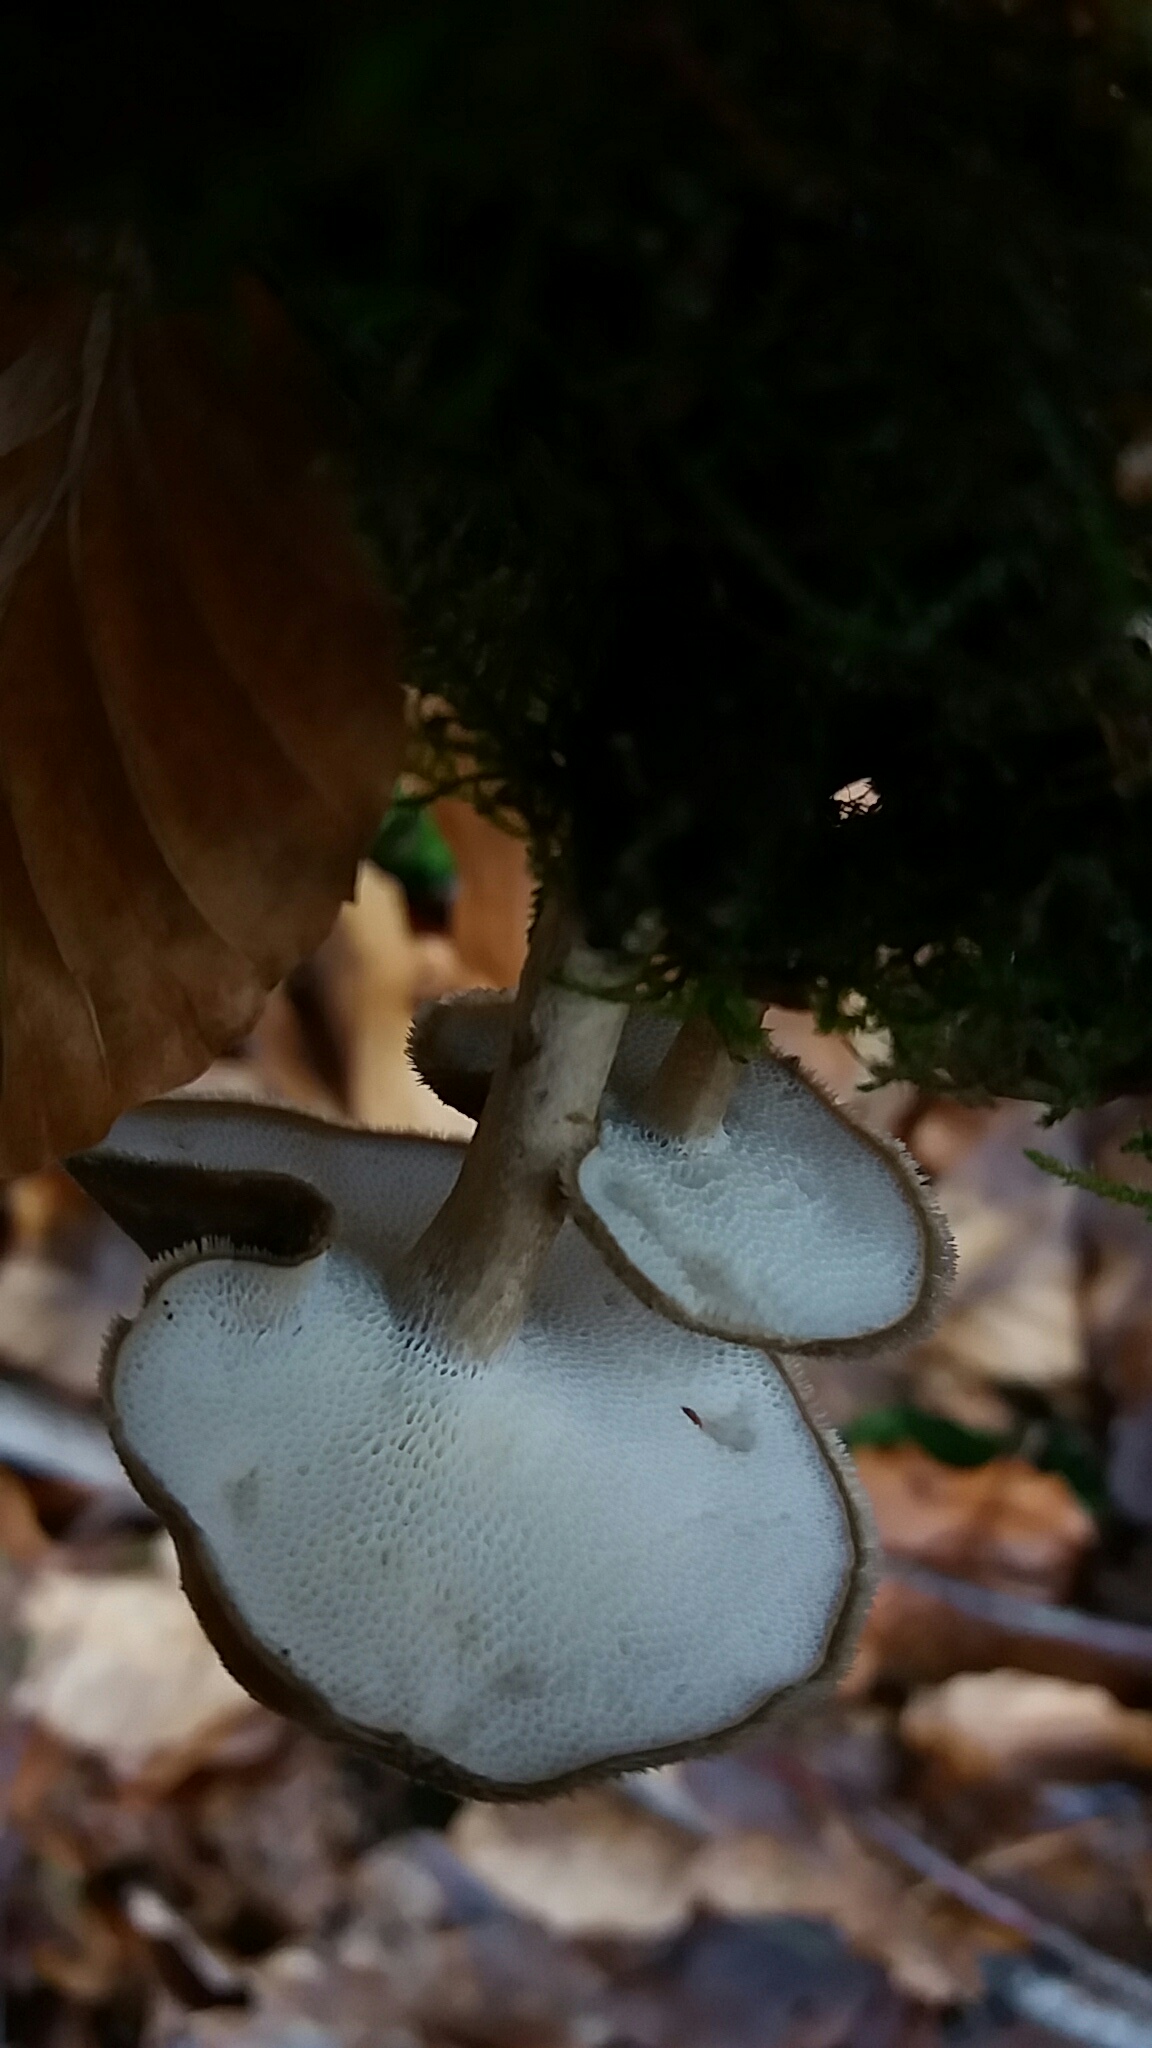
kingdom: Fungi
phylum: Basidiomycota
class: Agaricomycetes
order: Polyporales
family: Polyporaceae
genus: Lentinus
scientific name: Lentinus brumalis
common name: vinter-stilkporesvamp
